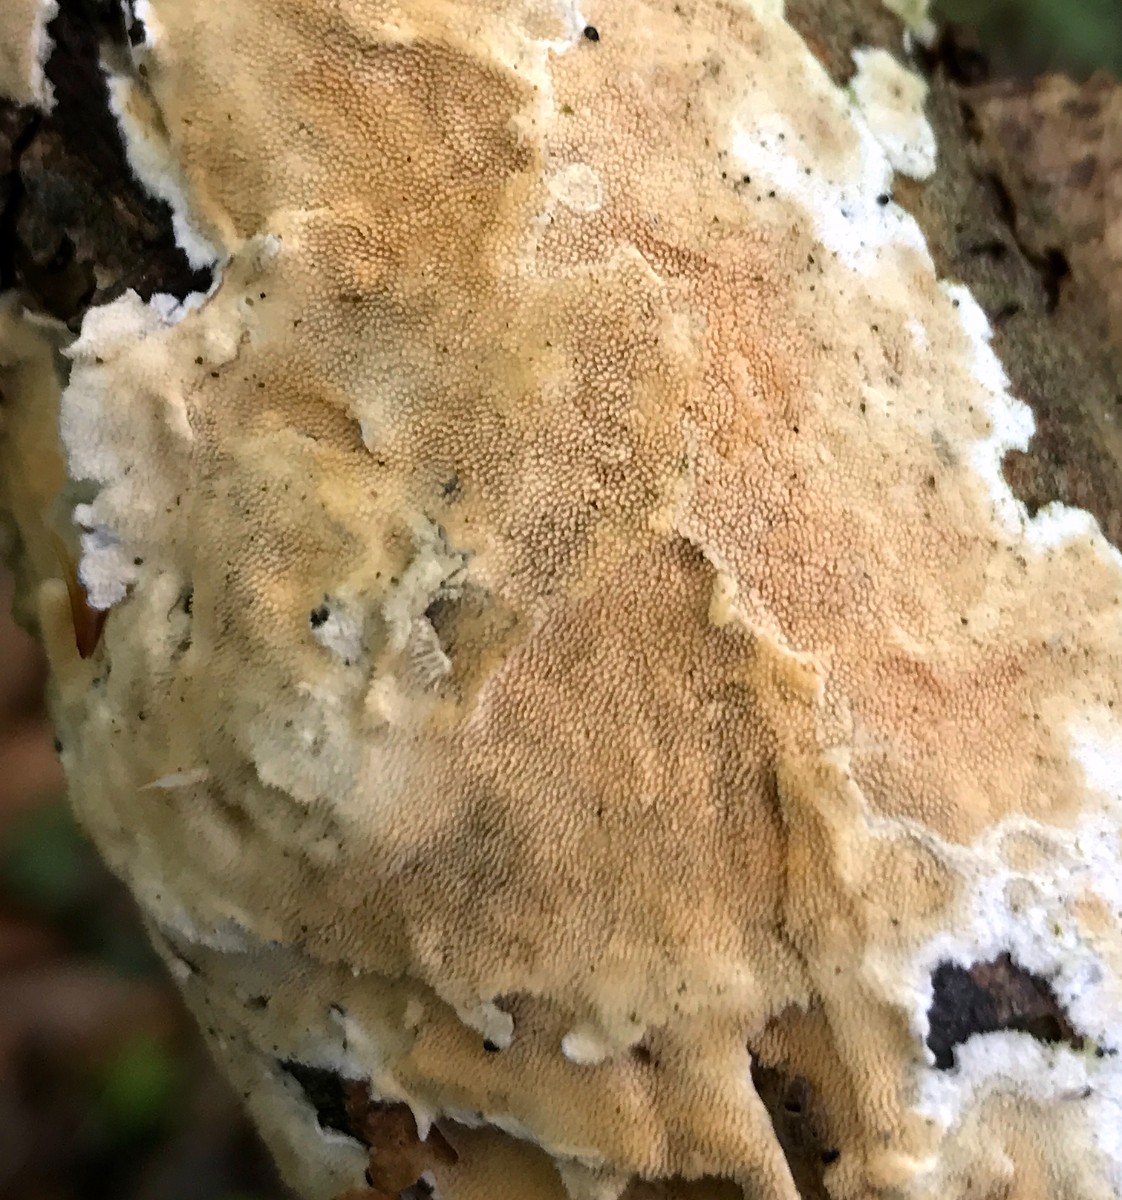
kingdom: Fungi
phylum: Basidiomycota
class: Agaricomycetes
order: Polyporales
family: Steccherinaceae
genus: Steccherinum
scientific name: Steccherinum ochraceum
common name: almindelig skønpig
